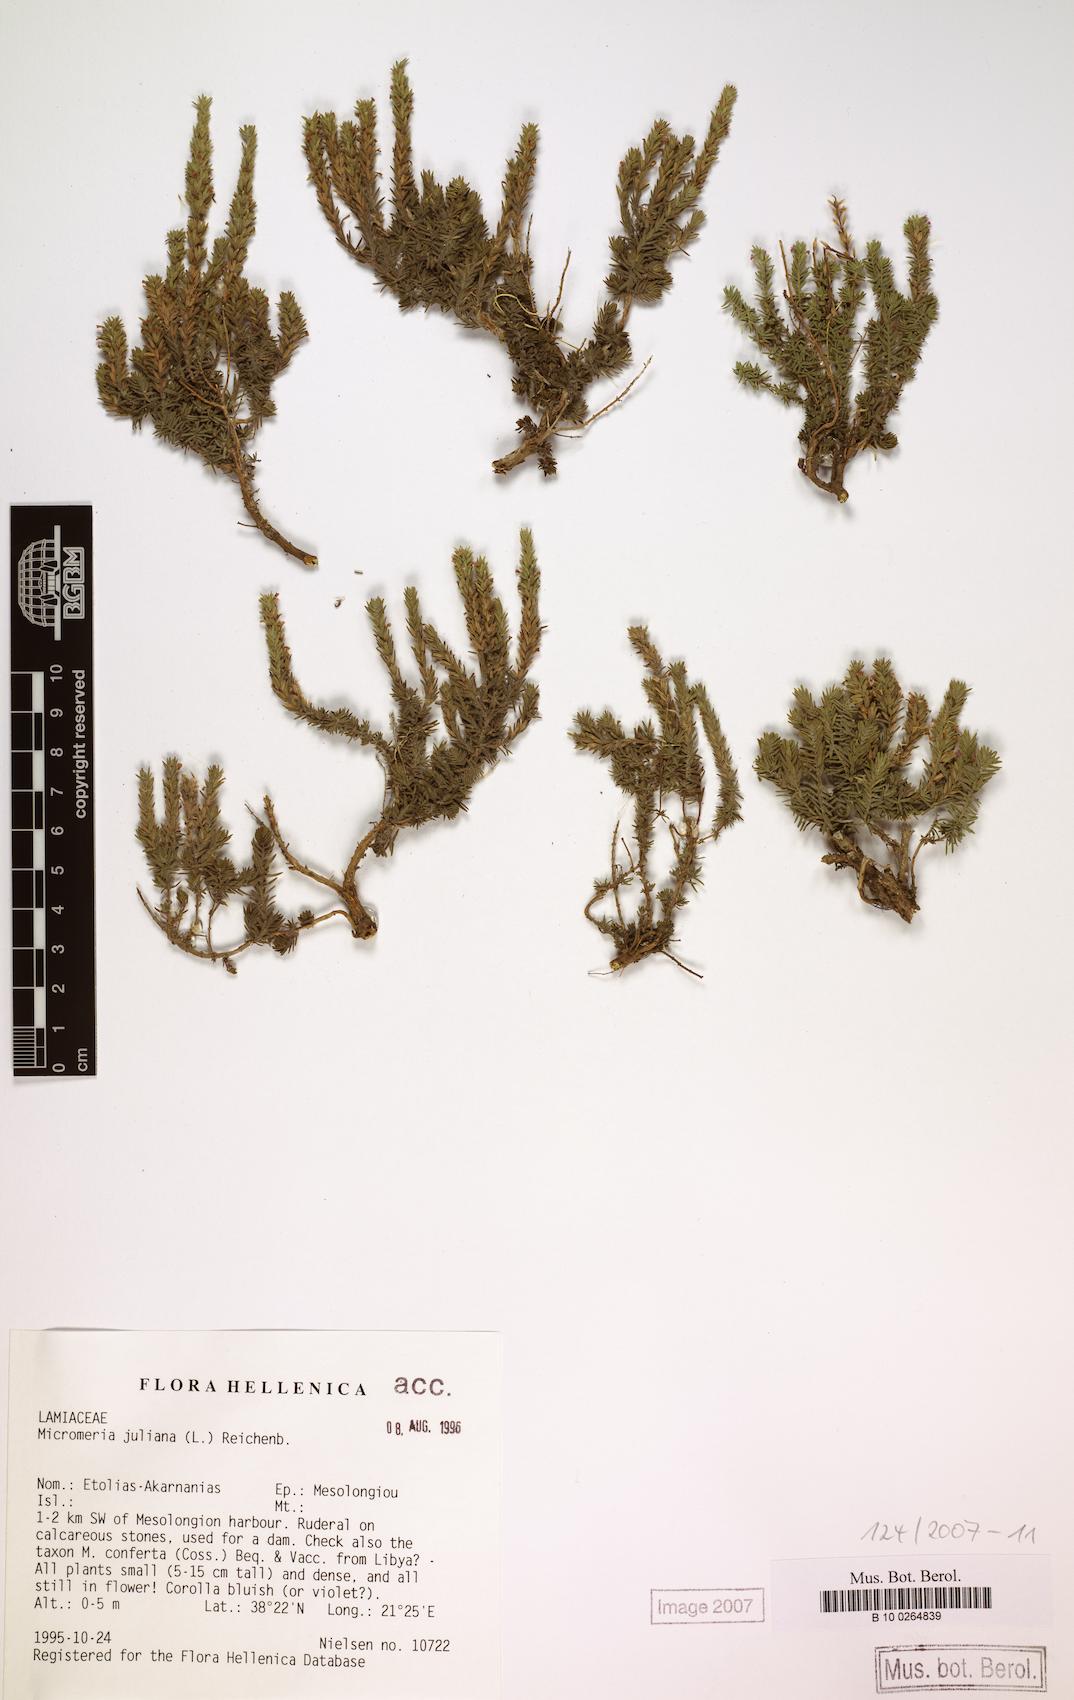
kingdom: Plantae
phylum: Tracheophyta
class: Magnoliopsida
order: Lamiales
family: Lamiaceae
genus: Micromeria
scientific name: Micromeria juliana
